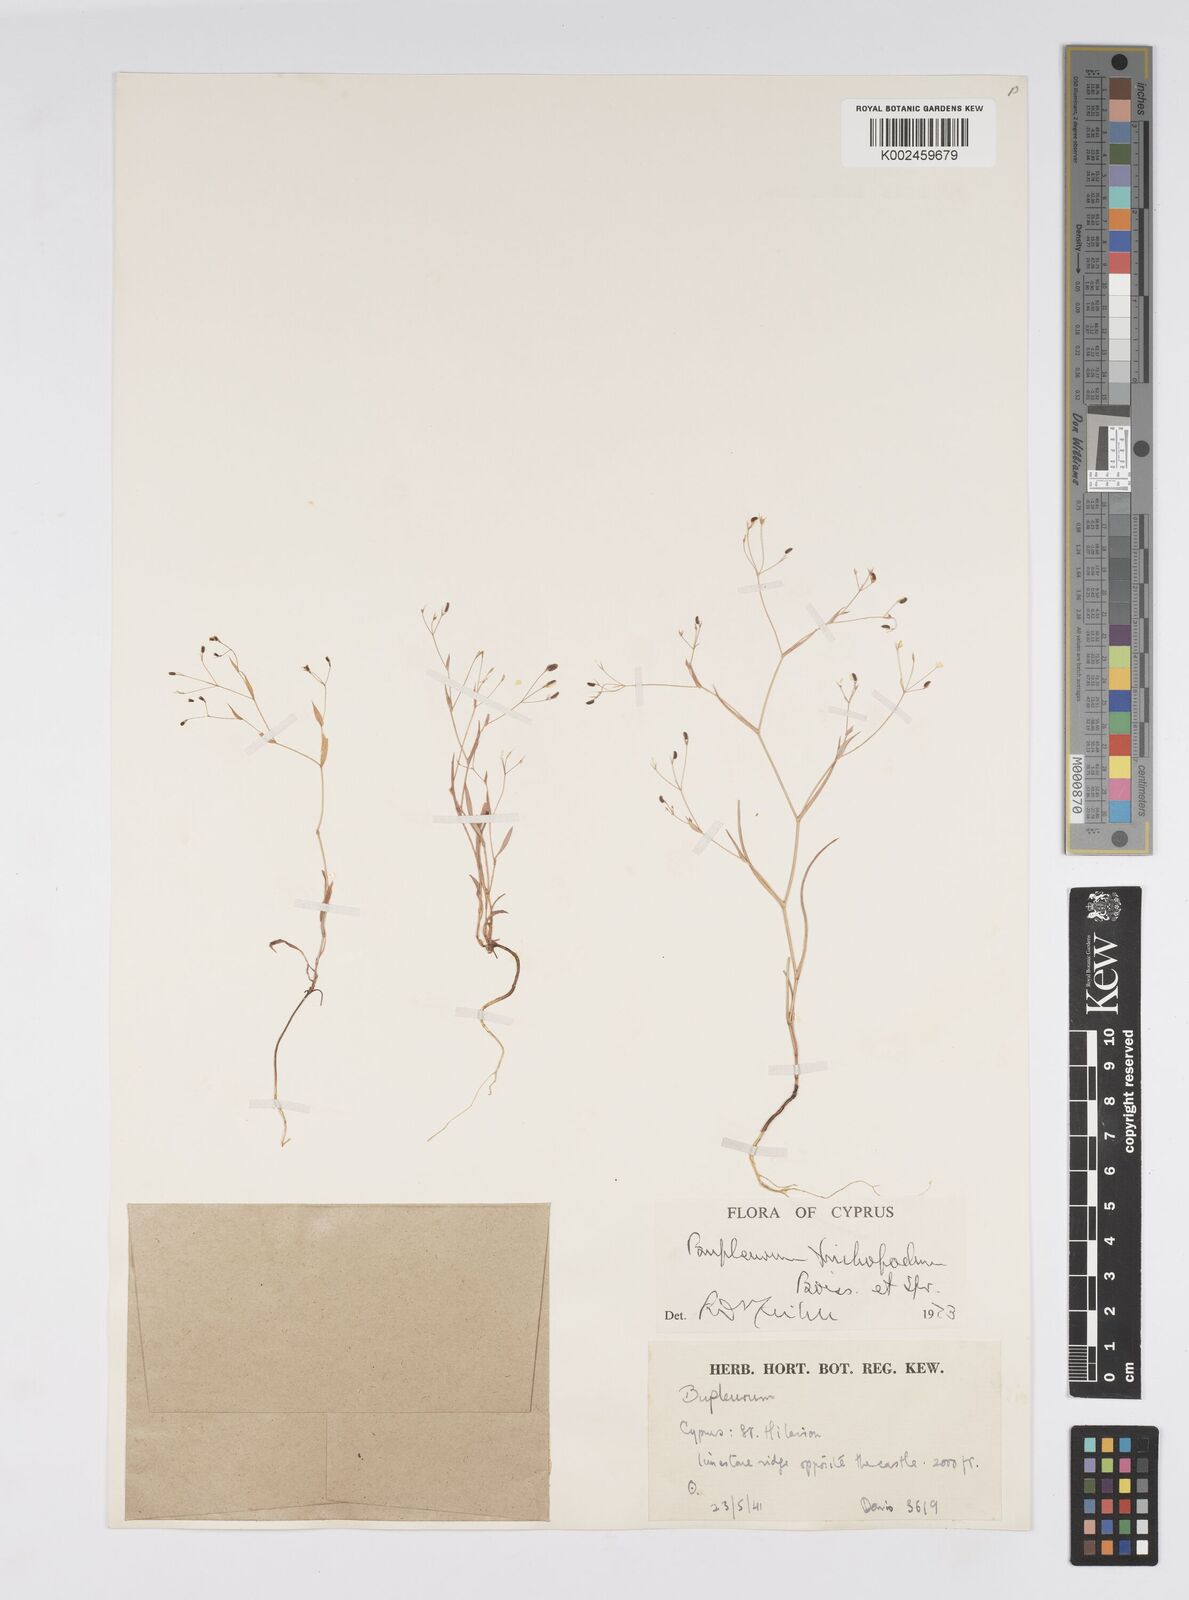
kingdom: Plantae
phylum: Tracheophyta
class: Magnoliopsida
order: Apiales
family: Apiaceae
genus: Bupleurum
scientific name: Bupleurum trichopodum
